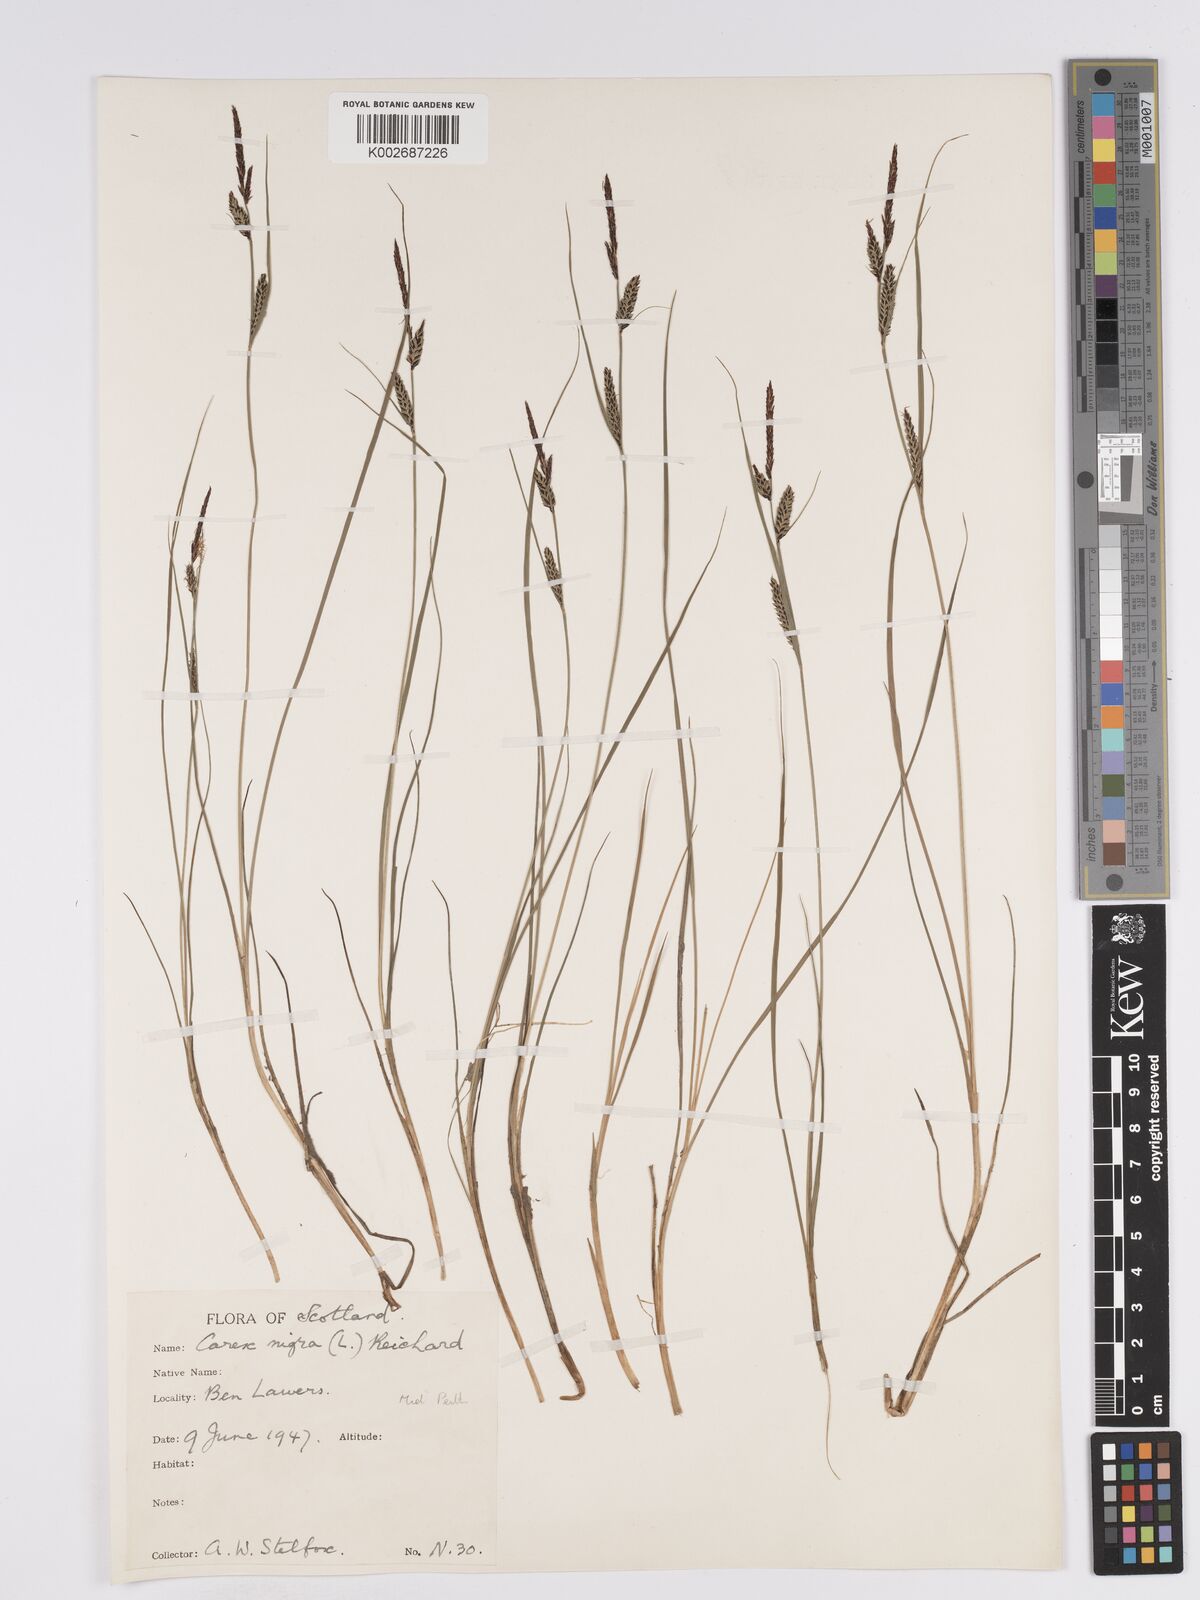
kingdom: Plantae
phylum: Tracheophyta
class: Liliopsida
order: Poales
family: Cyperaceae
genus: Carex
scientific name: Carex nigra
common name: Common sedge
